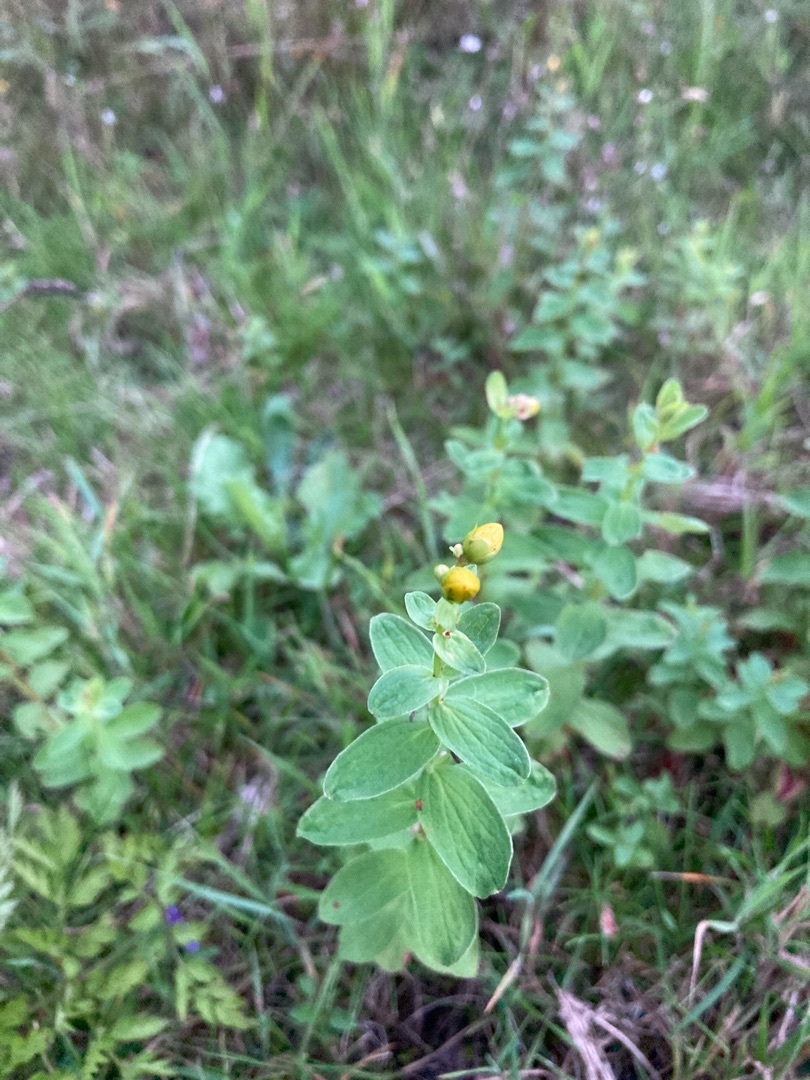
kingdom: Plantae
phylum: Tracheophyta
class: Magnoliopsida
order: Malpighiales
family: Hypericaceae
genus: Hypericum
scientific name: Hypericum maculatum
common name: Kantet perikon
